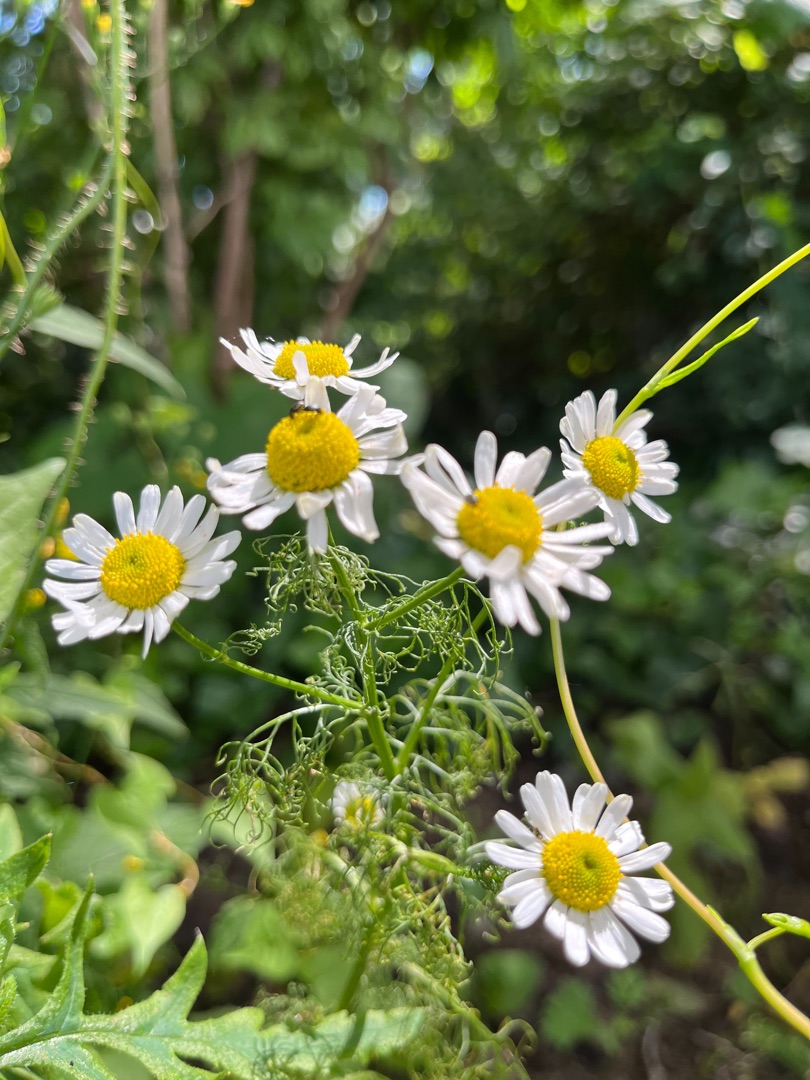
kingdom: Plantae
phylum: Tracheophyta
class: Magnoliopsida
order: Asterales
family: Asteraceae
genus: Tripleurospermum
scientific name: Tripleurospermum inodorum
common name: Lugtløs kamille
